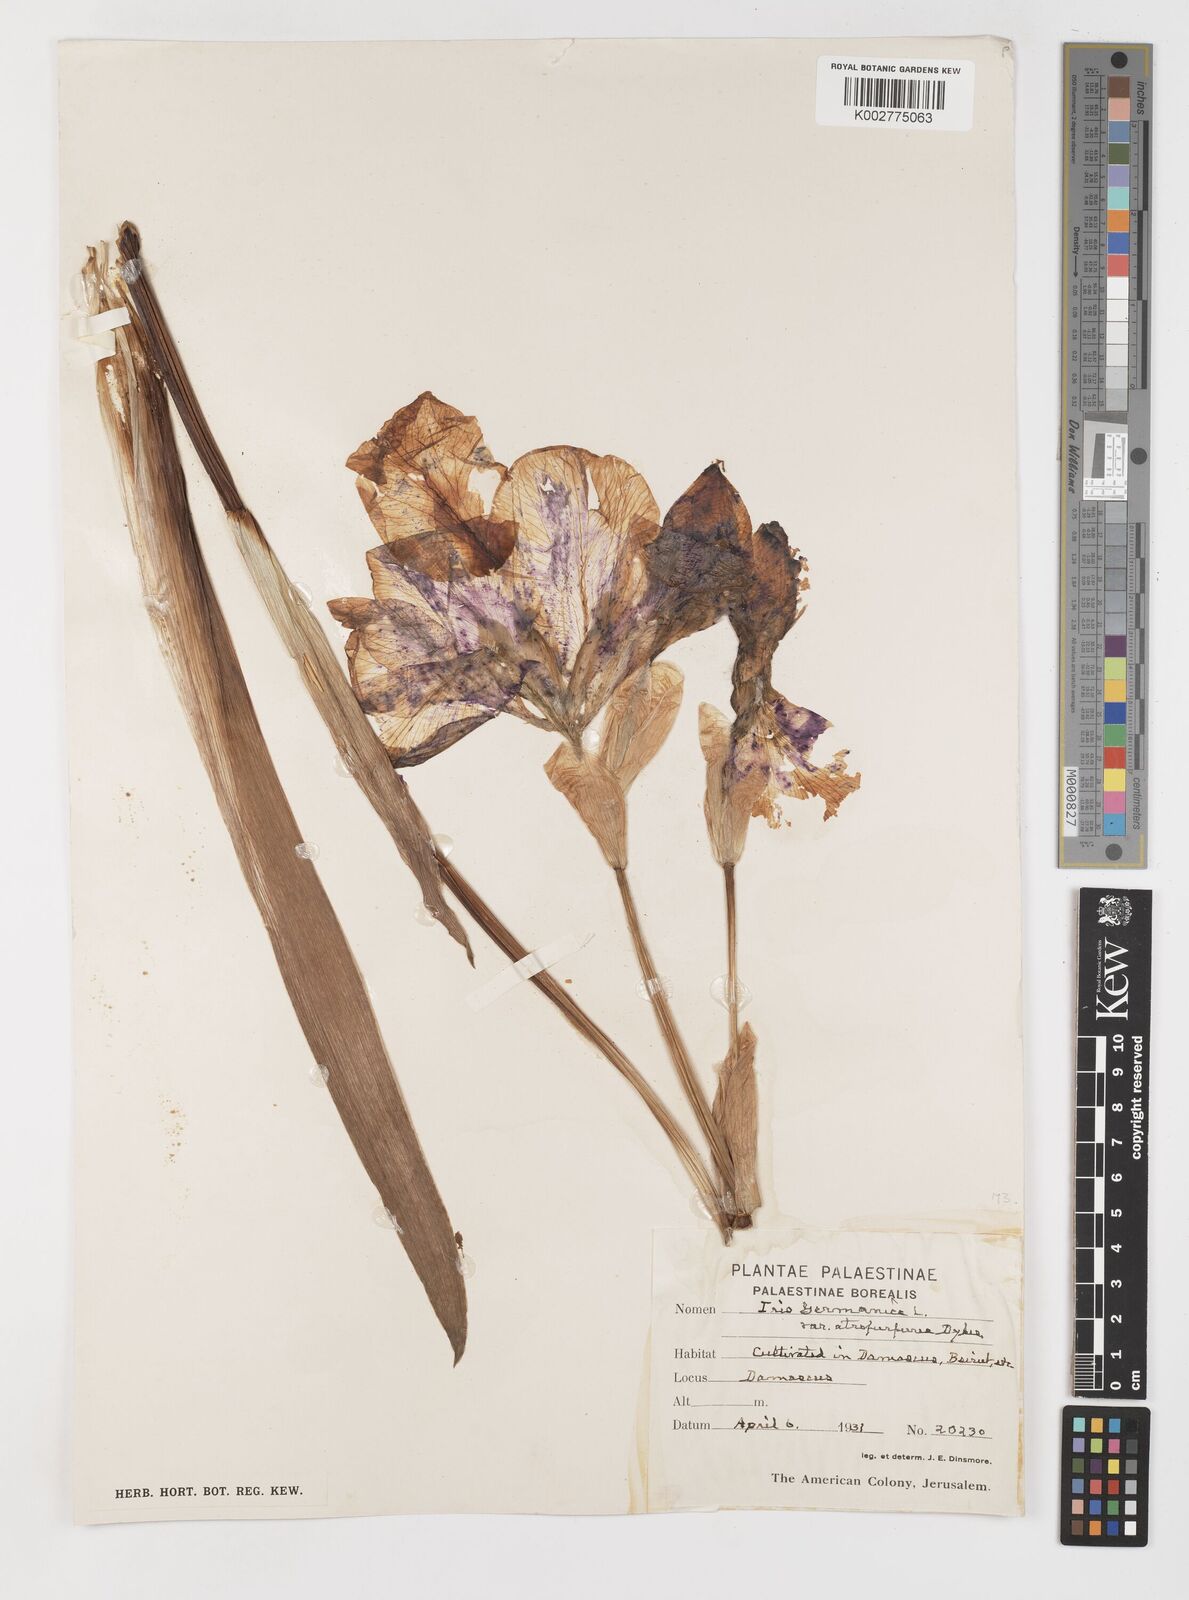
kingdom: Plantae
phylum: Tracheophyta
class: Liliopsida
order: Asparagales
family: Iridaceae
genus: Iris
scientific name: Iris germanica
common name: German iris
